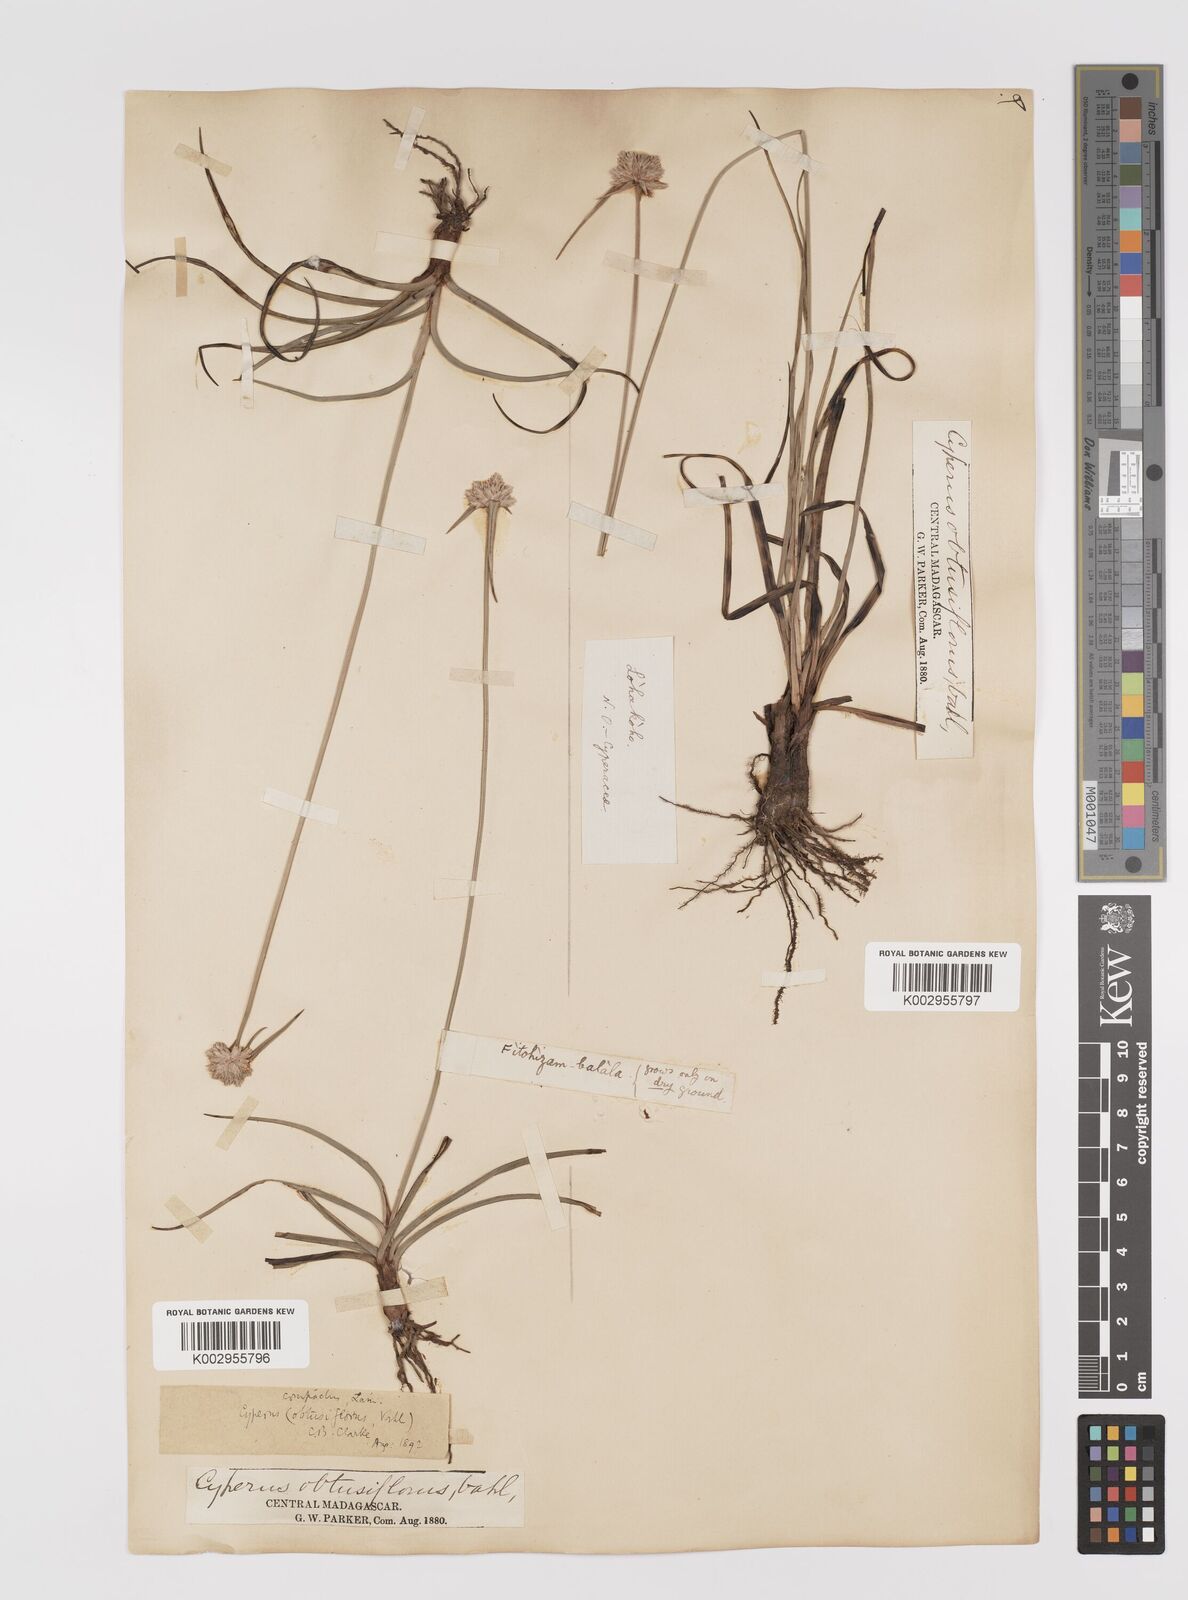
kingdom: Plantae
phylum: Tracheophyta
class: Liliopsida
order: Poales
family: Cyperaceae
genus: Cyperus
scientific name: Cyperus niveus
